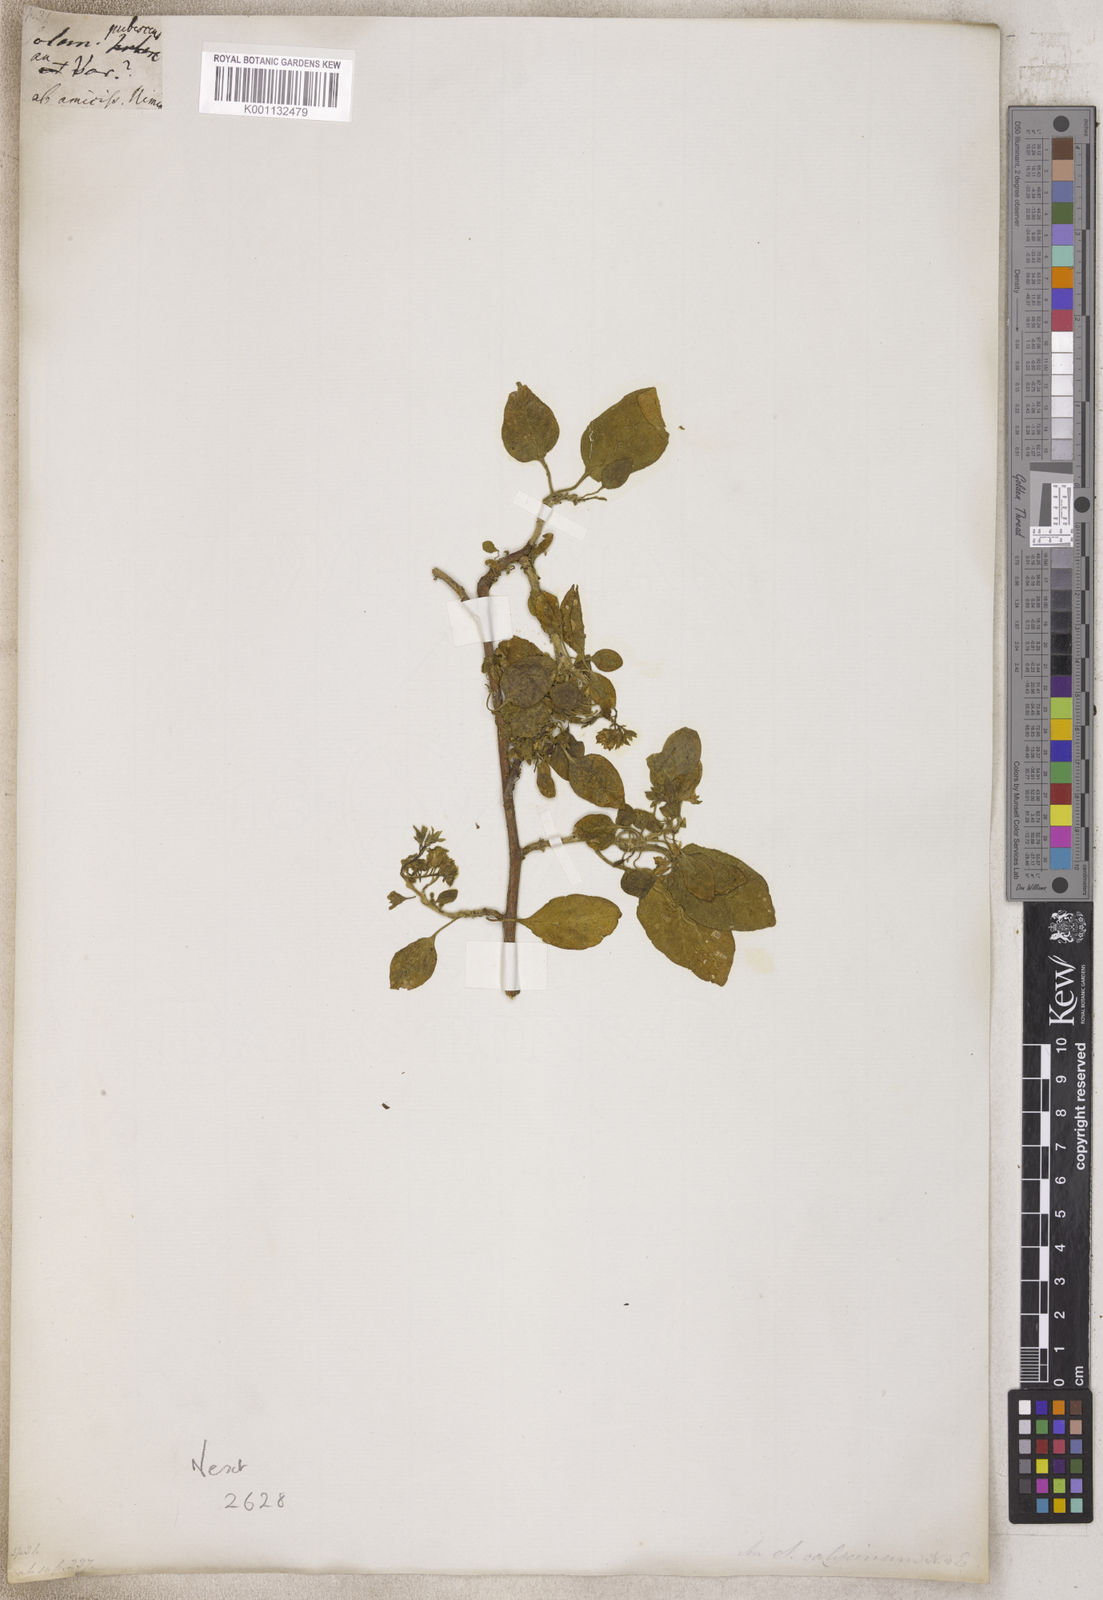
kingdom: Plantae
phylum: Tracheophyta
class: Magnoliopsida
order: Solanales
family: Solanaceae
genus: Solanum
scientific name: Solanum
